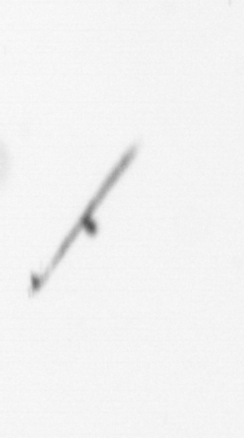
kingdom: Chromista
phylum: Ochrophyta
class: Bacillariophyceae
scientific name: Bacillariophyceae
